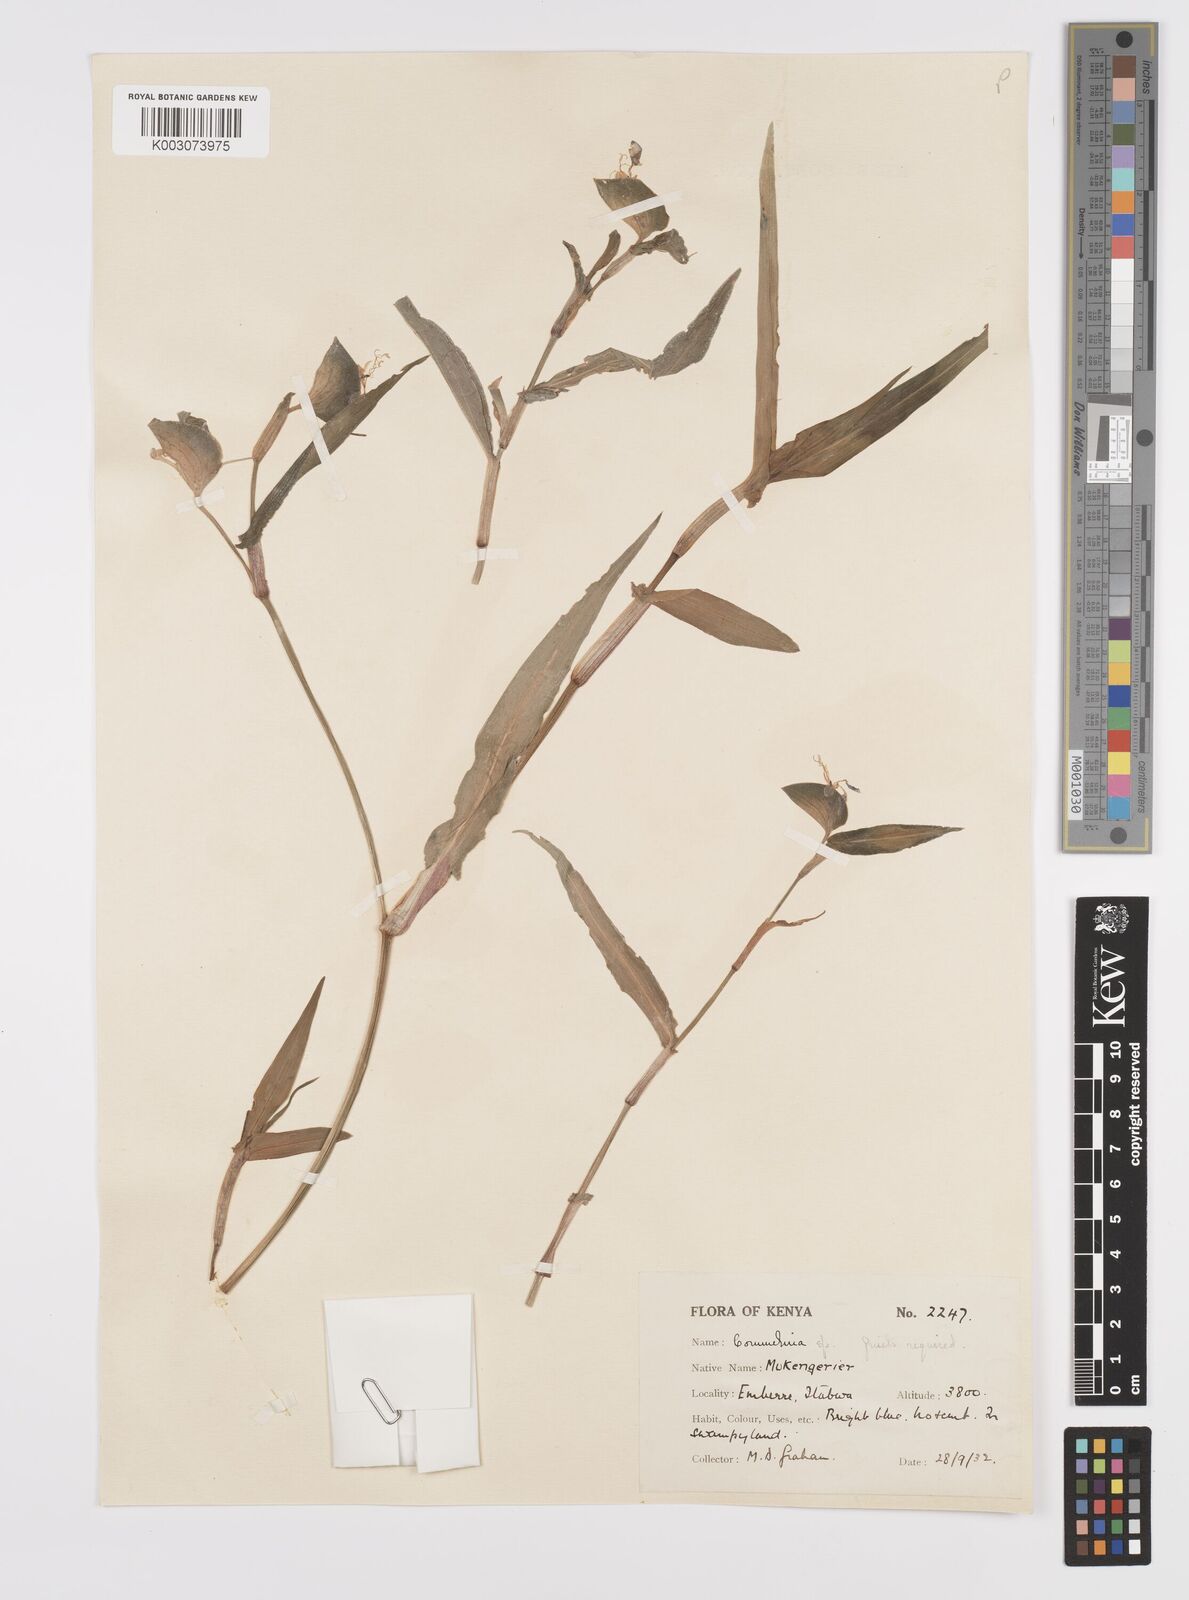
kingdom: Plantae
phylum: Tracheophyta
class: Liliopsida
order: Commelinales
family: Commelinaceae
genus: Commelina
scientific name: Commelina imberbis
